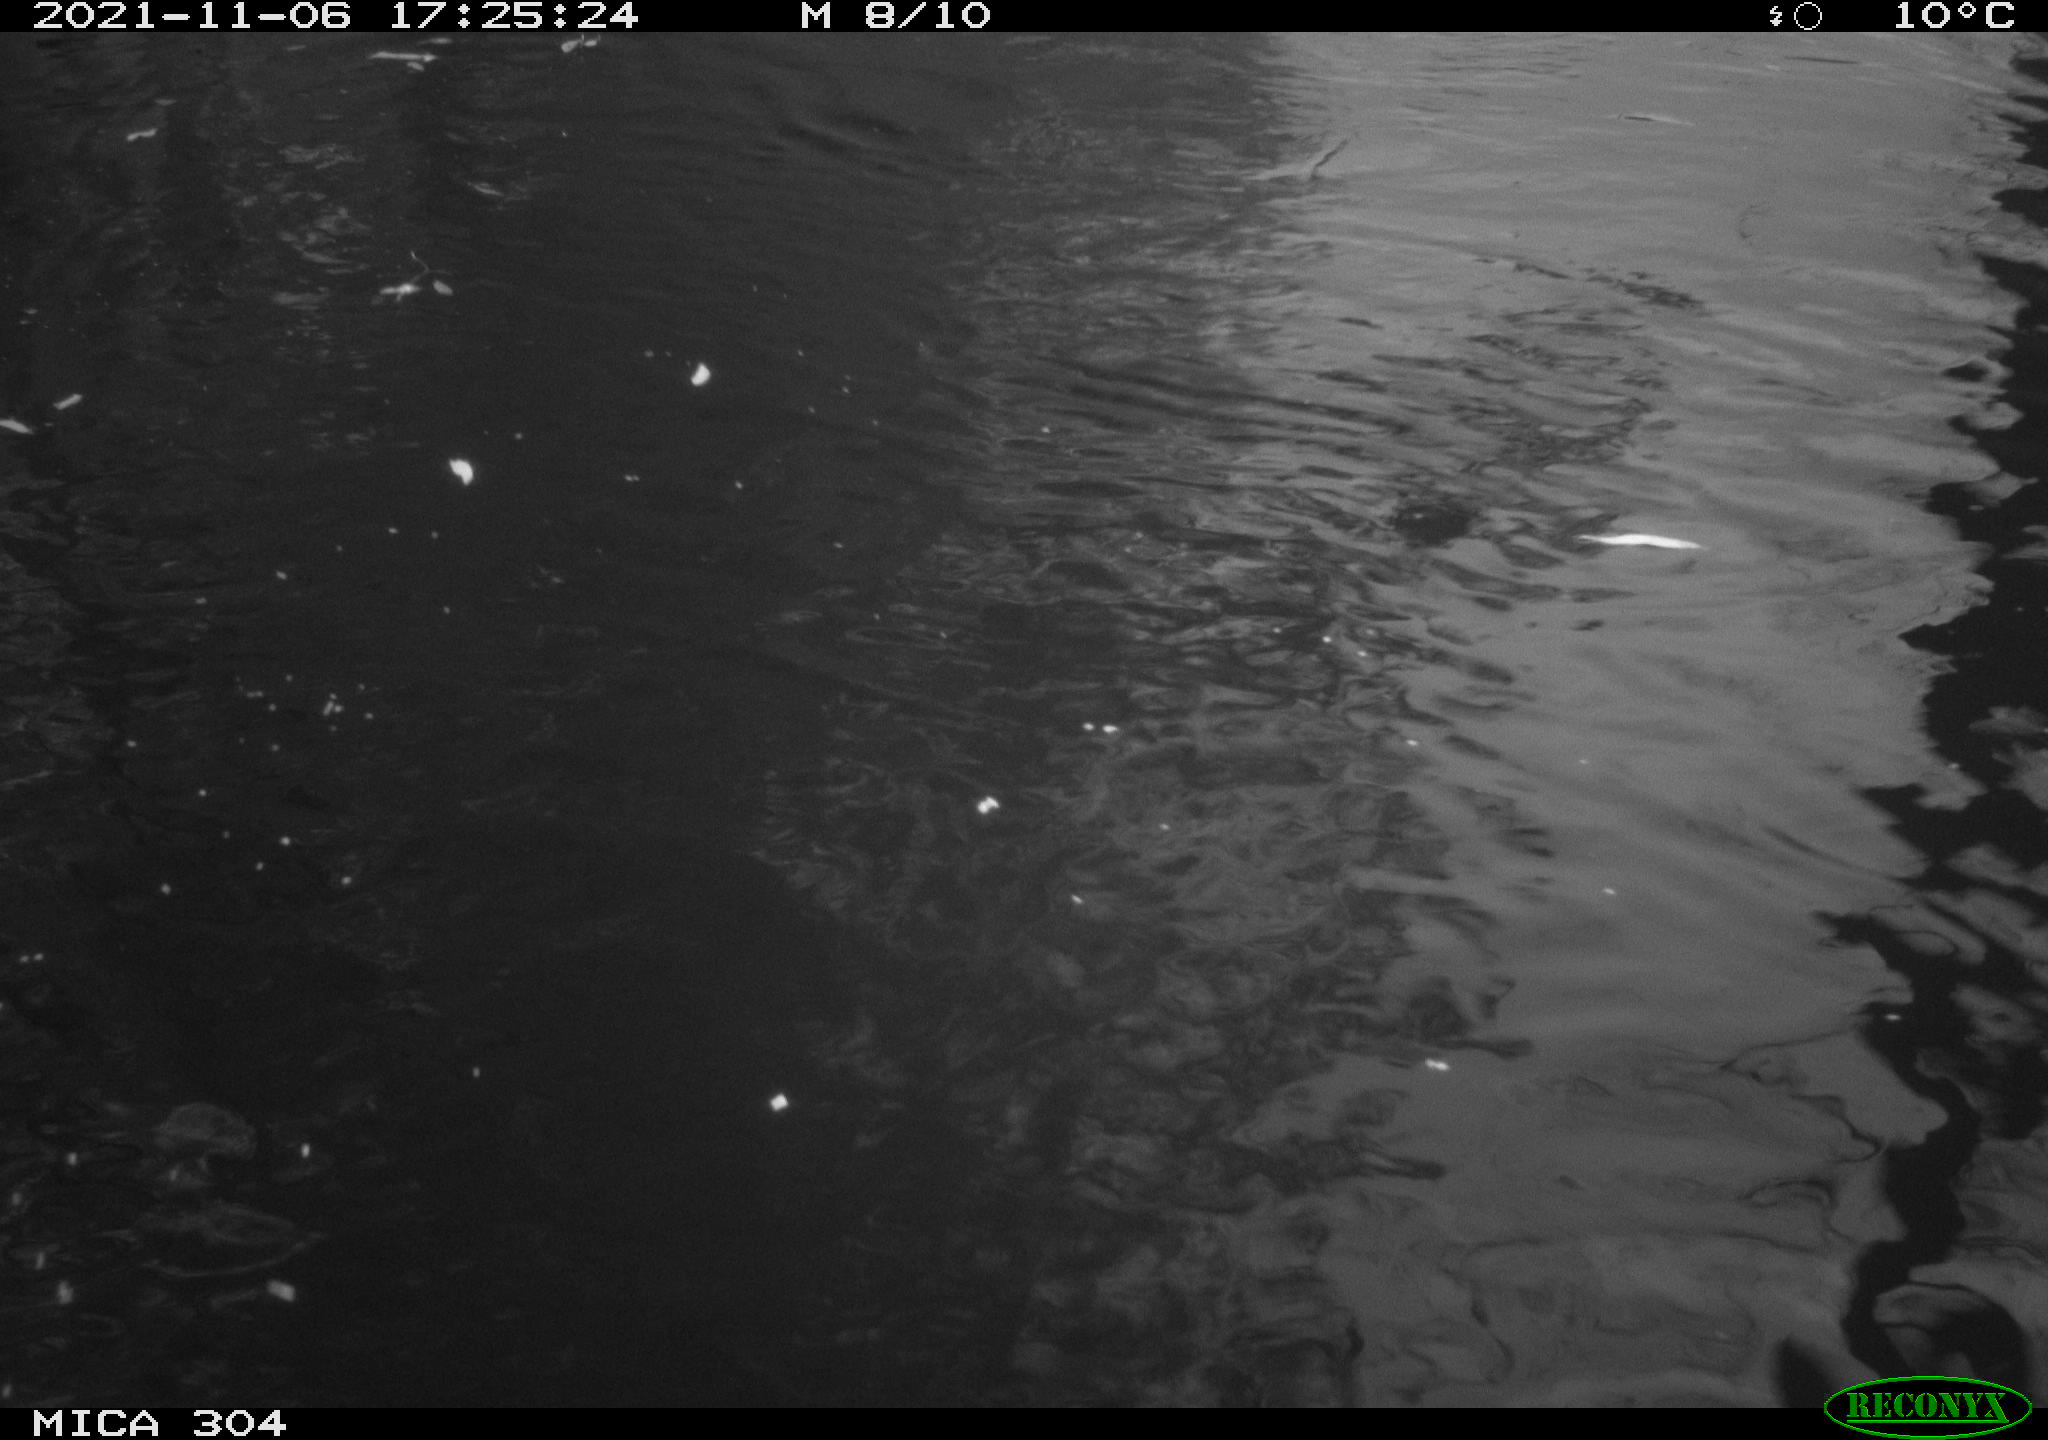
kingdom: Animalia
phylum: Chordata
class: Aves
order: Gruiformes
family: Rallidae
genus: Fulica
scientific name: Fulica atra
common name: Eurasian coot
